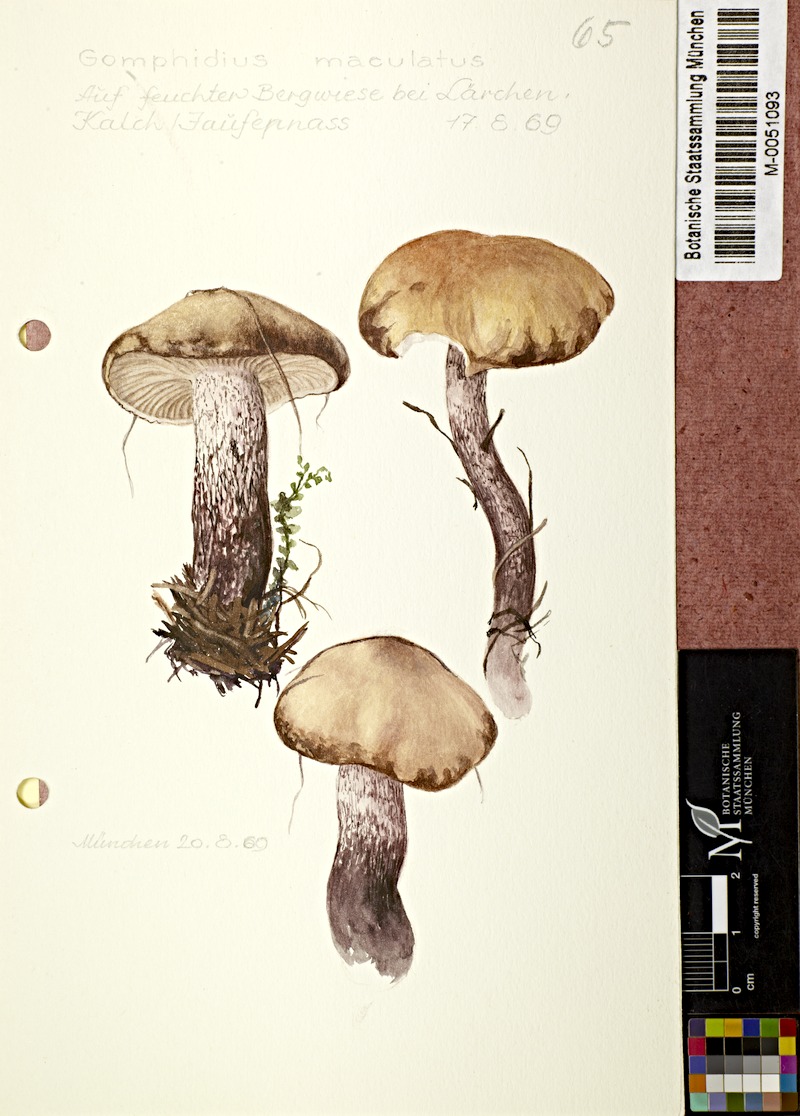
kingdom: Fungi
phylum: Basidiomycota
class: Agaricomycetes
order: Boletales
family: Gomphidiaceae
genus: Gomphidius
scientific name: Gomphidius maculatus
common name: Larch spike
